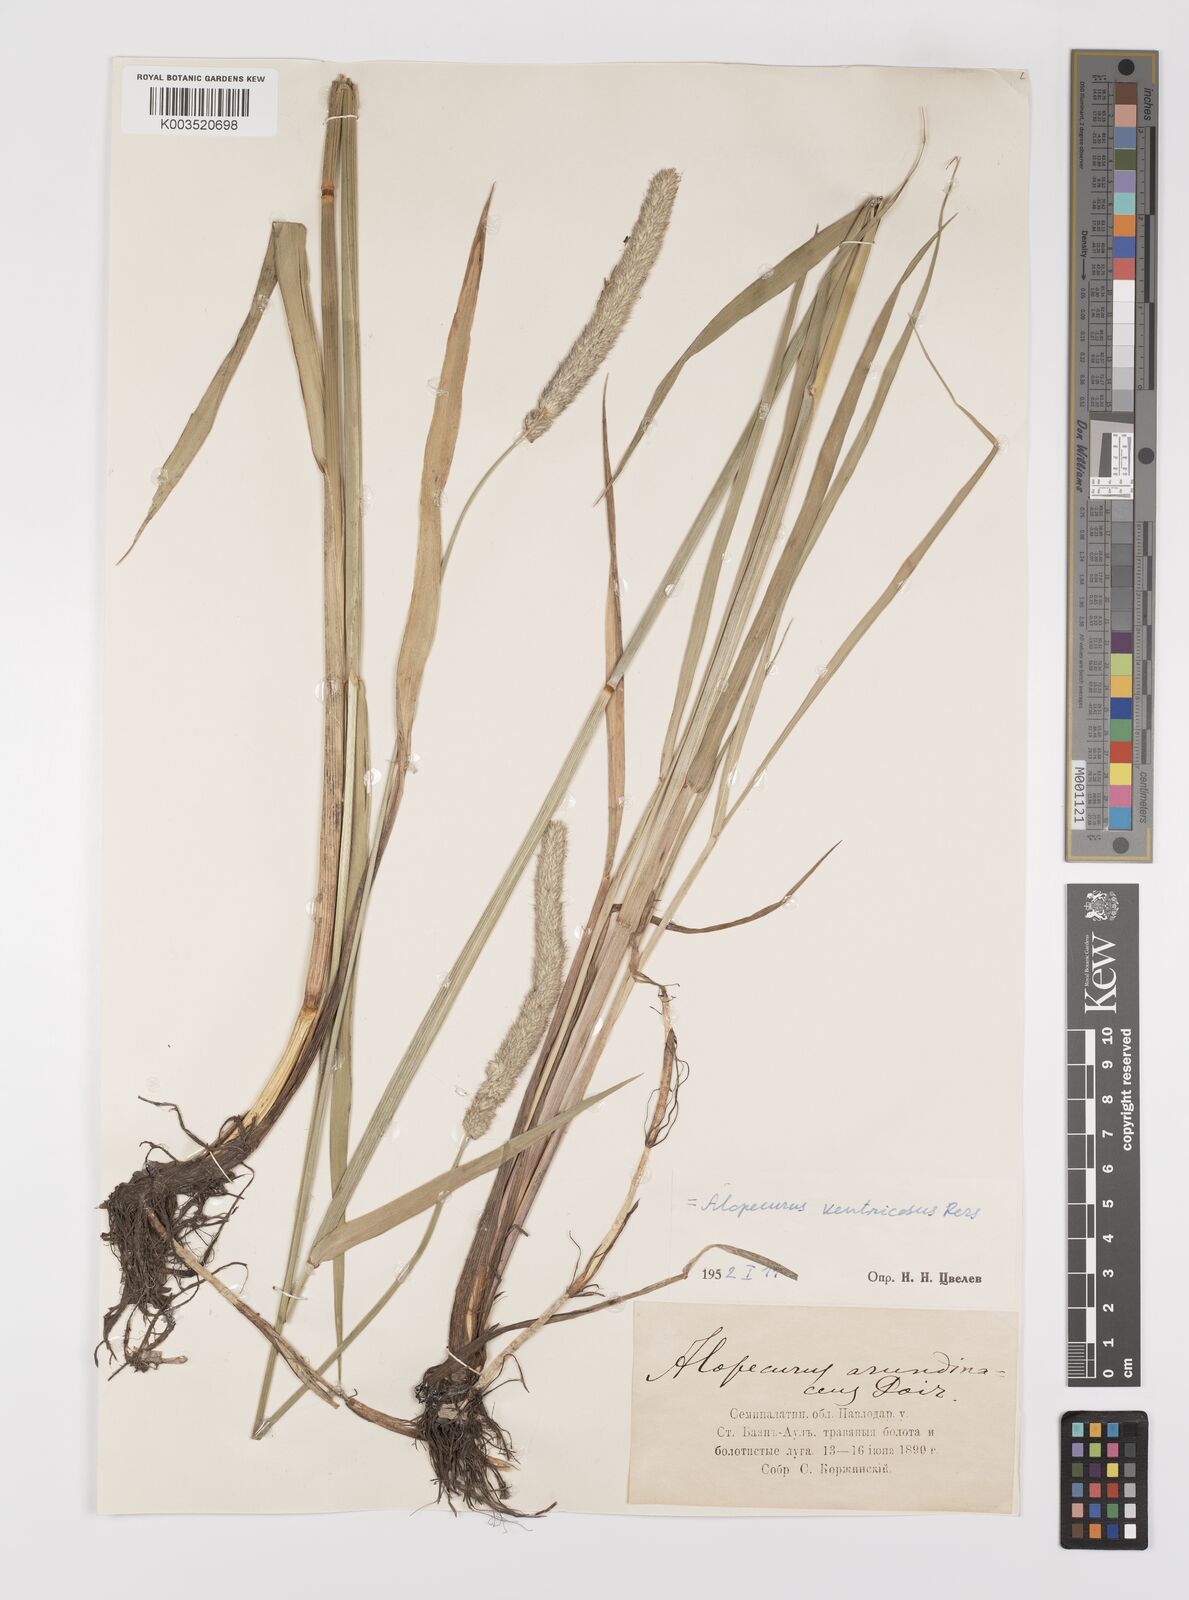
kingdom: Plantae
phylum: Tracheophyta
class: Liliopsida
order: Poales
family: Poaceae
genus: Alopecurus
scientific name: Alopecurus arundinaceus
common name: Creeping meadow foxtail
